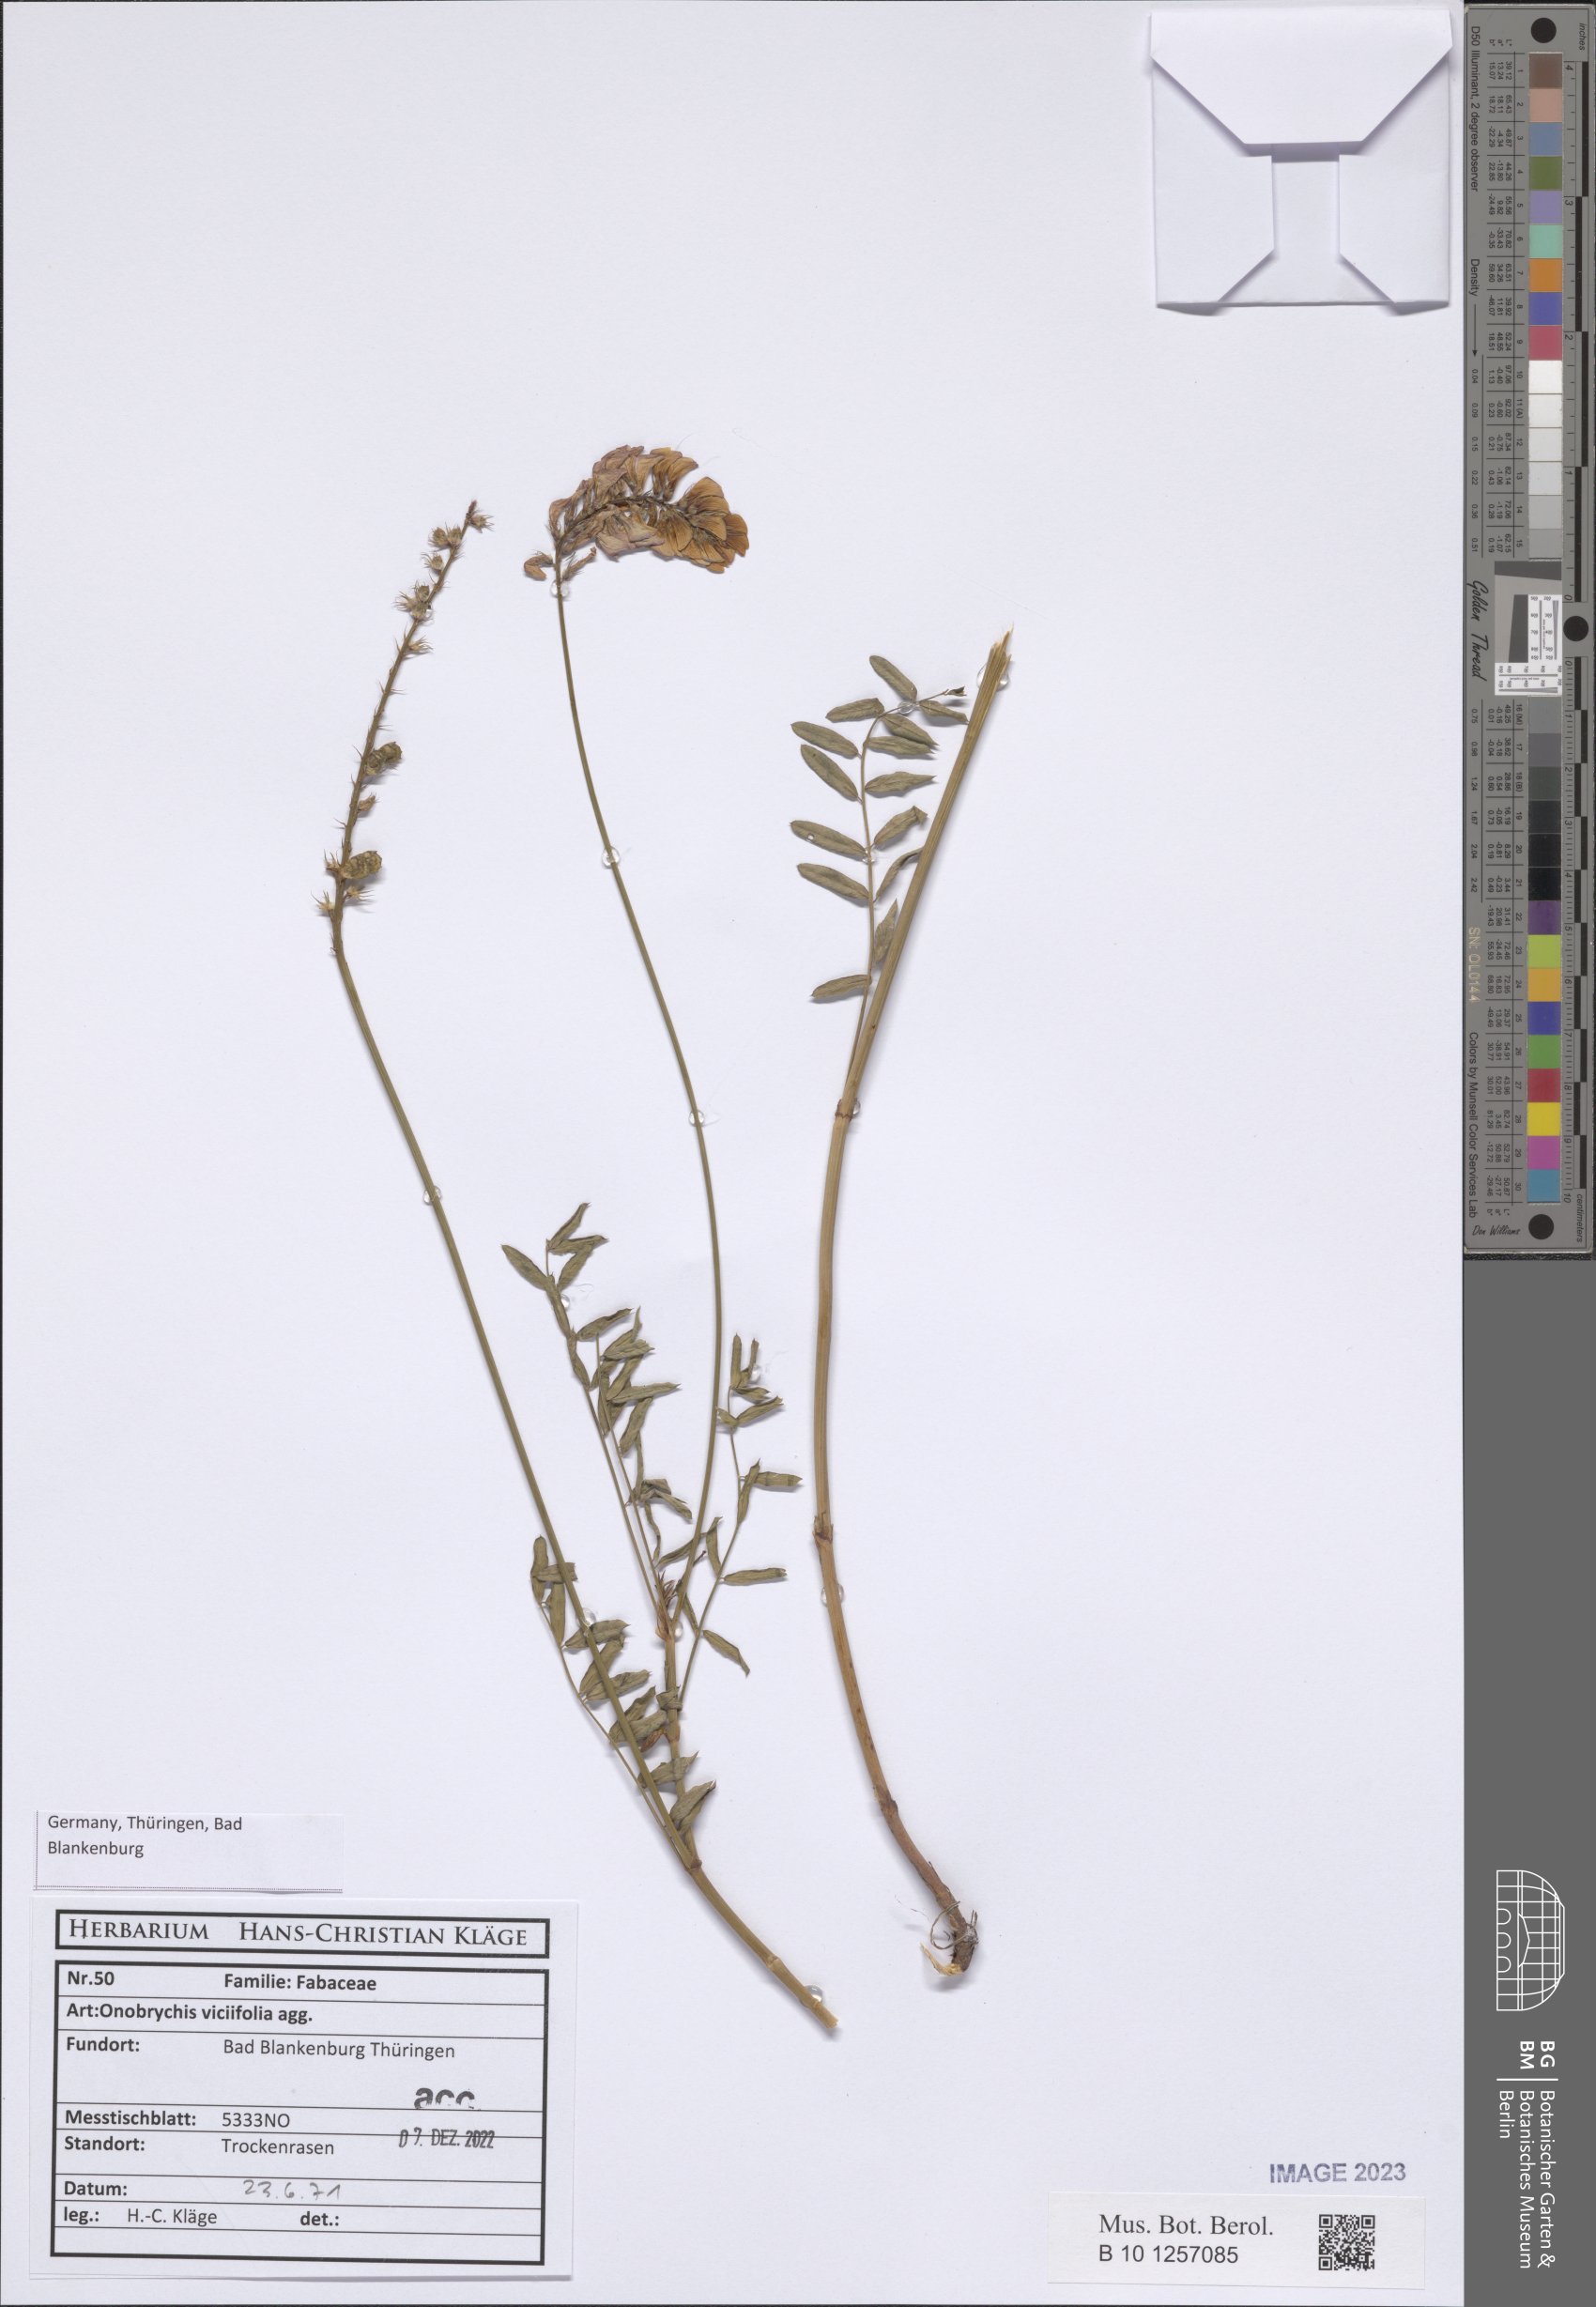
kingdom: Plantae
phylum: Tracheophyta
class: Magnoliopsida
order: Fabales
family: Fabaceae
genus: Onobrychis
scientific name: Onobrychis viciifolia
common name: Sainfoin
